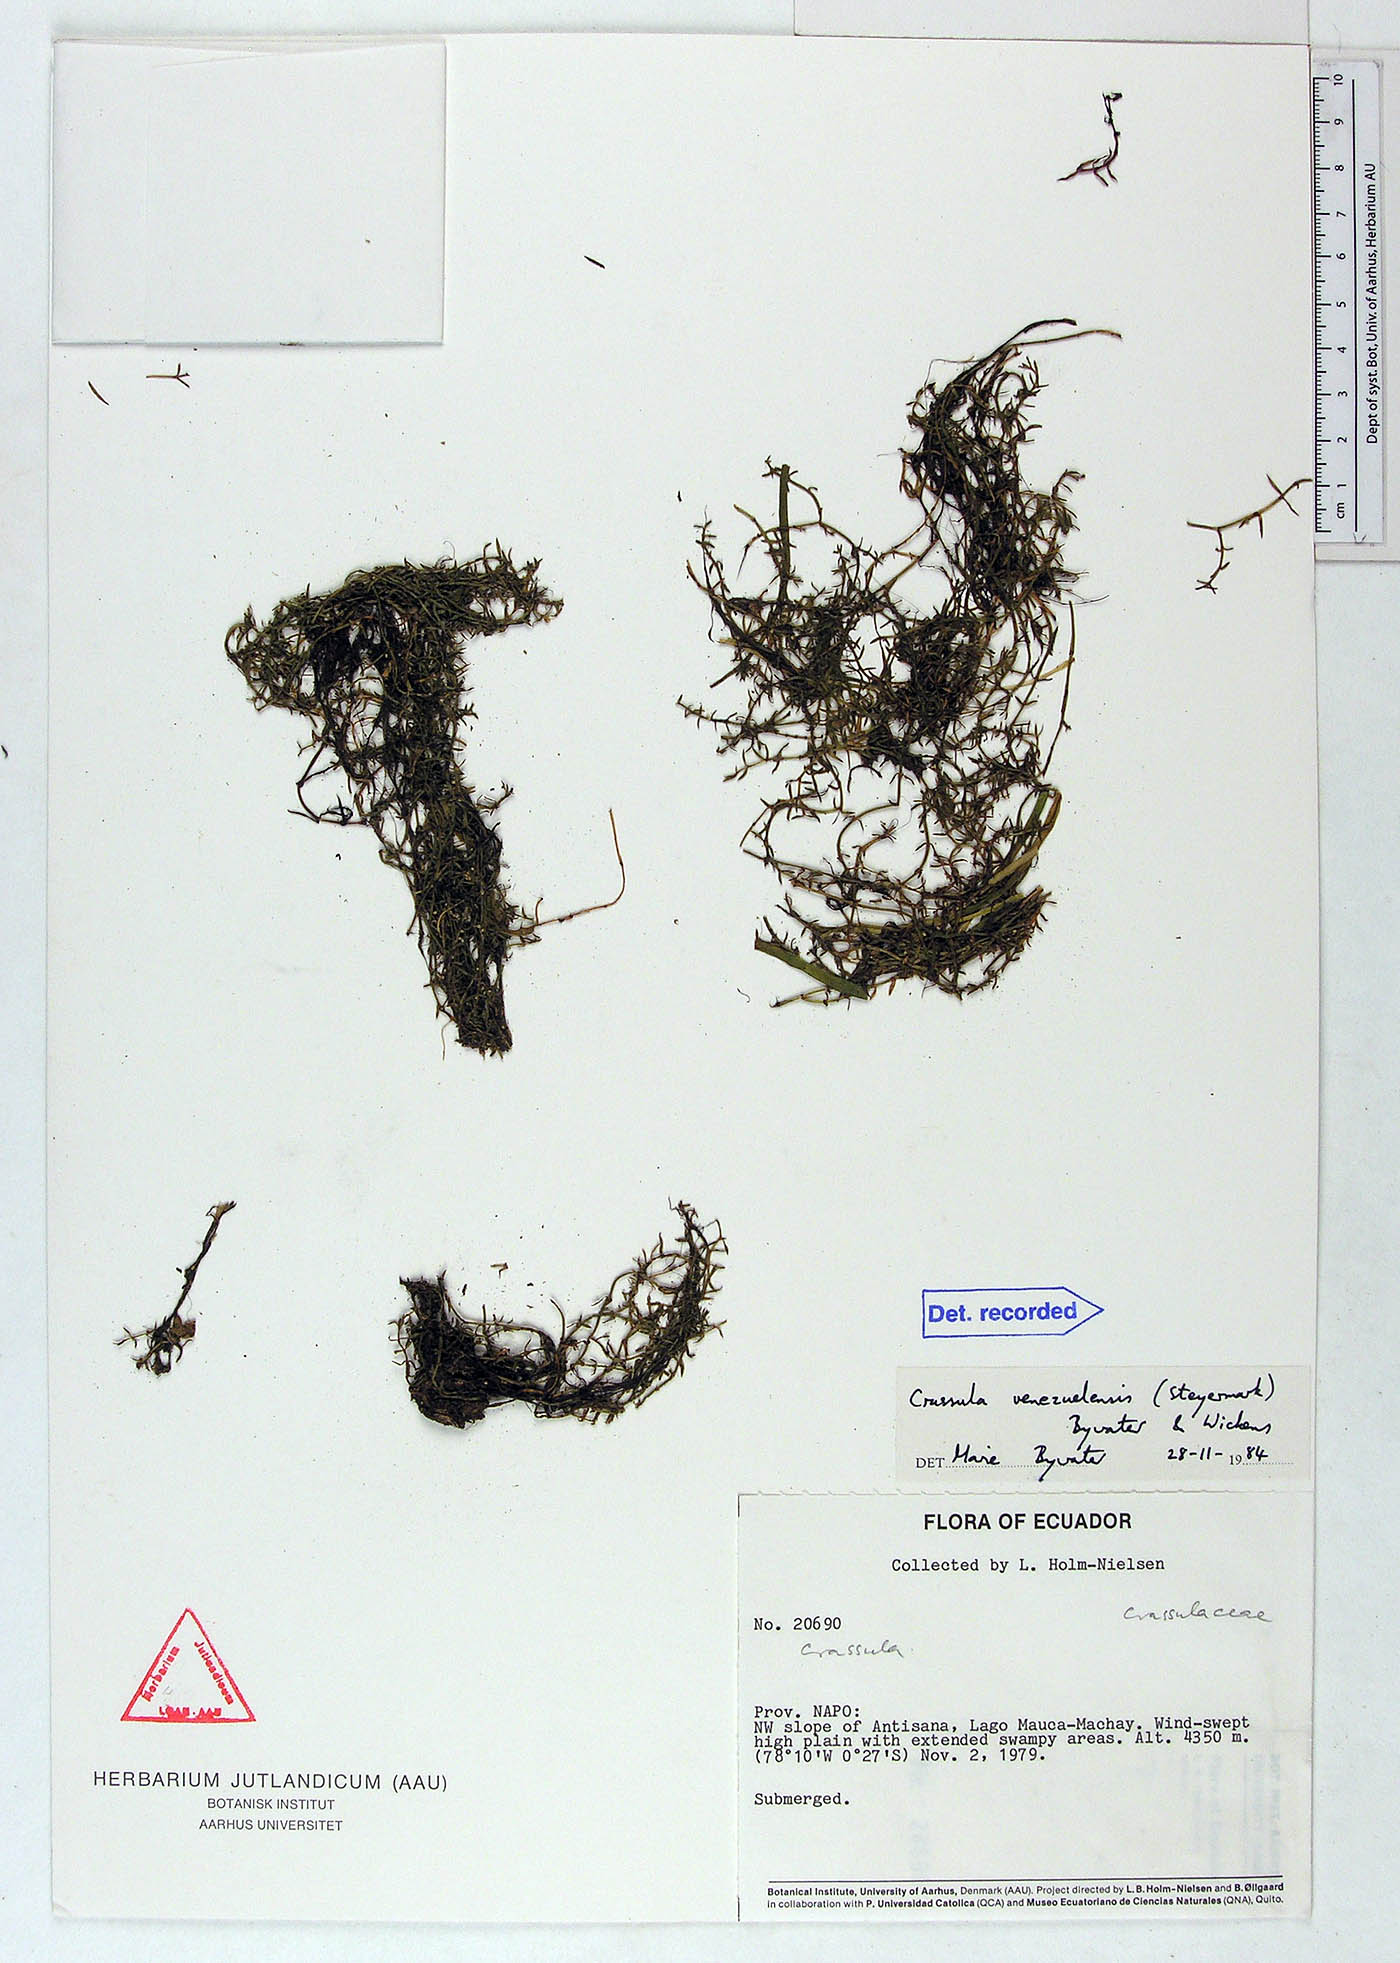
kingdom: Plantae
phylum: Tracheophyta
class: Magnoliopsida
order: Saxifragales
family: Crassulaceae
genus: Crassula
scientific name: Crassula venezuelensis
